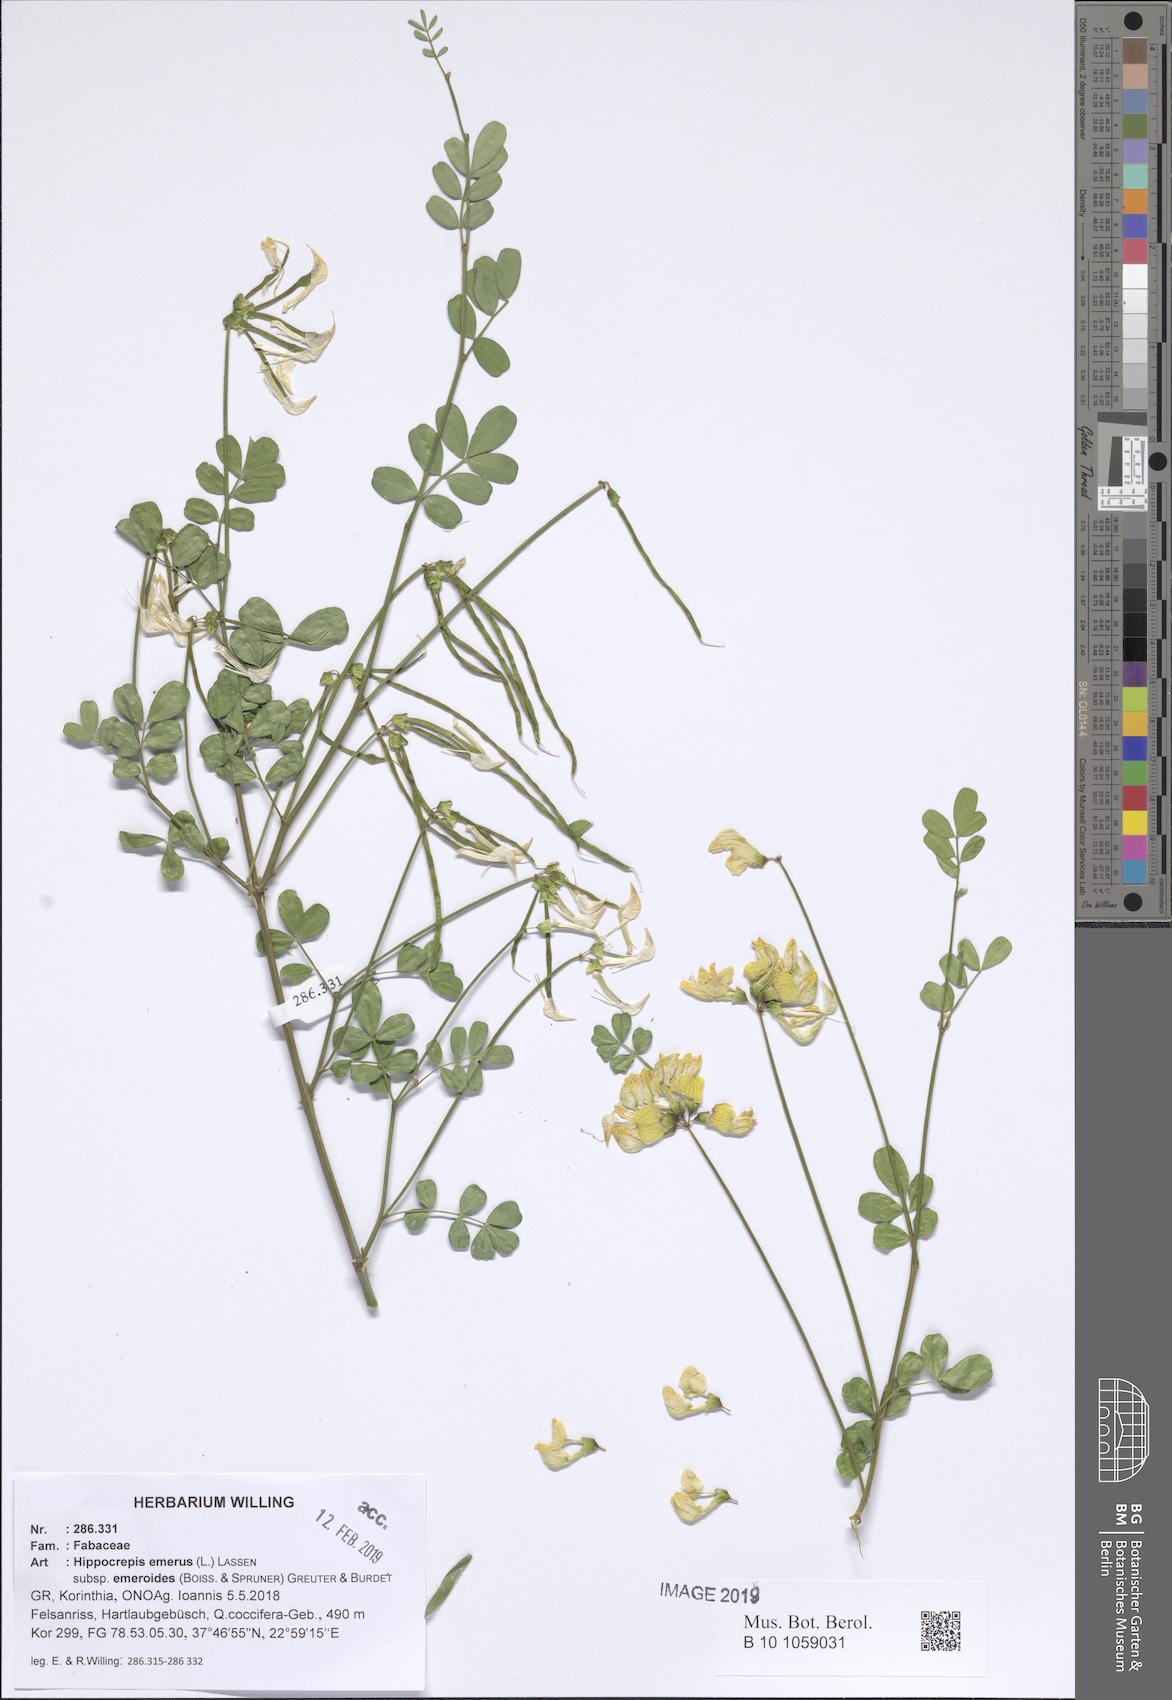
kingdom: Plantae
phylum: Tracheophyta
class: Magnoliopsida
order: Fabales
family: Fabaceae
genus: Hippocrepis
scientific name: Hippocrepis emerus
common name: Scorpion senna
